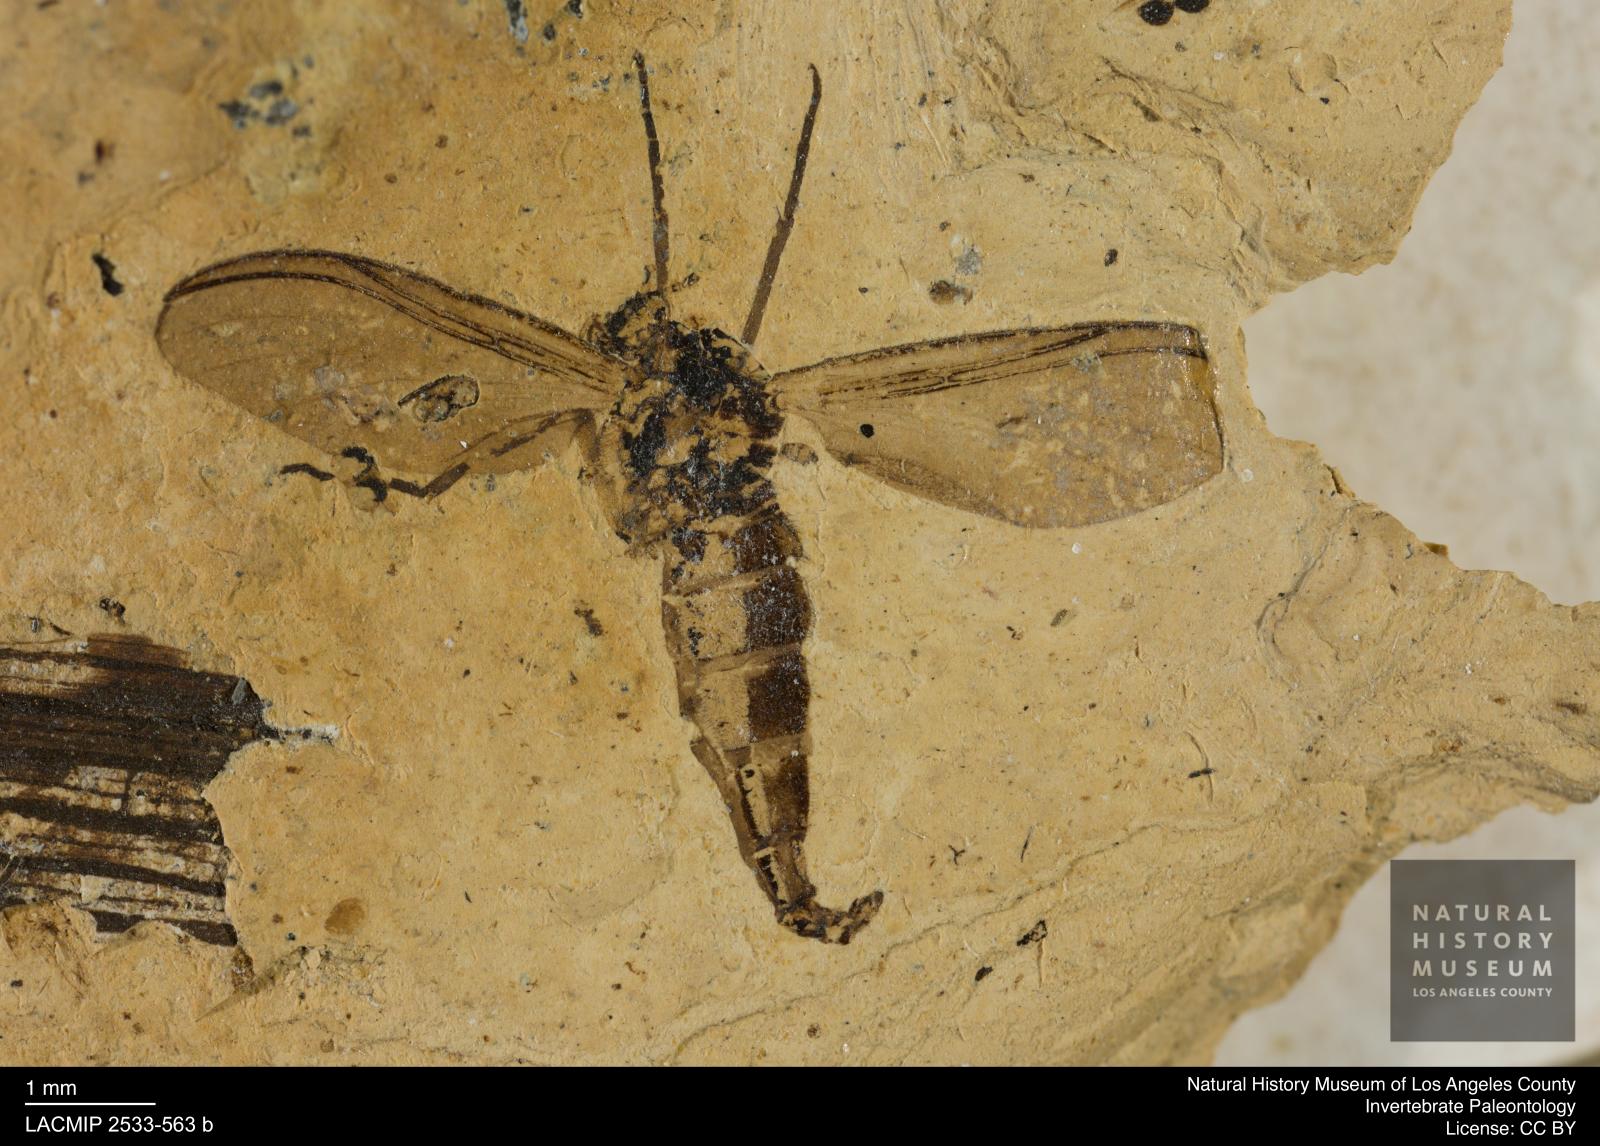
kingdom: Animalia
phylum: Arthropoda
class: Insecta
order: Diptera
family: Sciaridae
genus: Sciara
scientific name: Sciara austera
